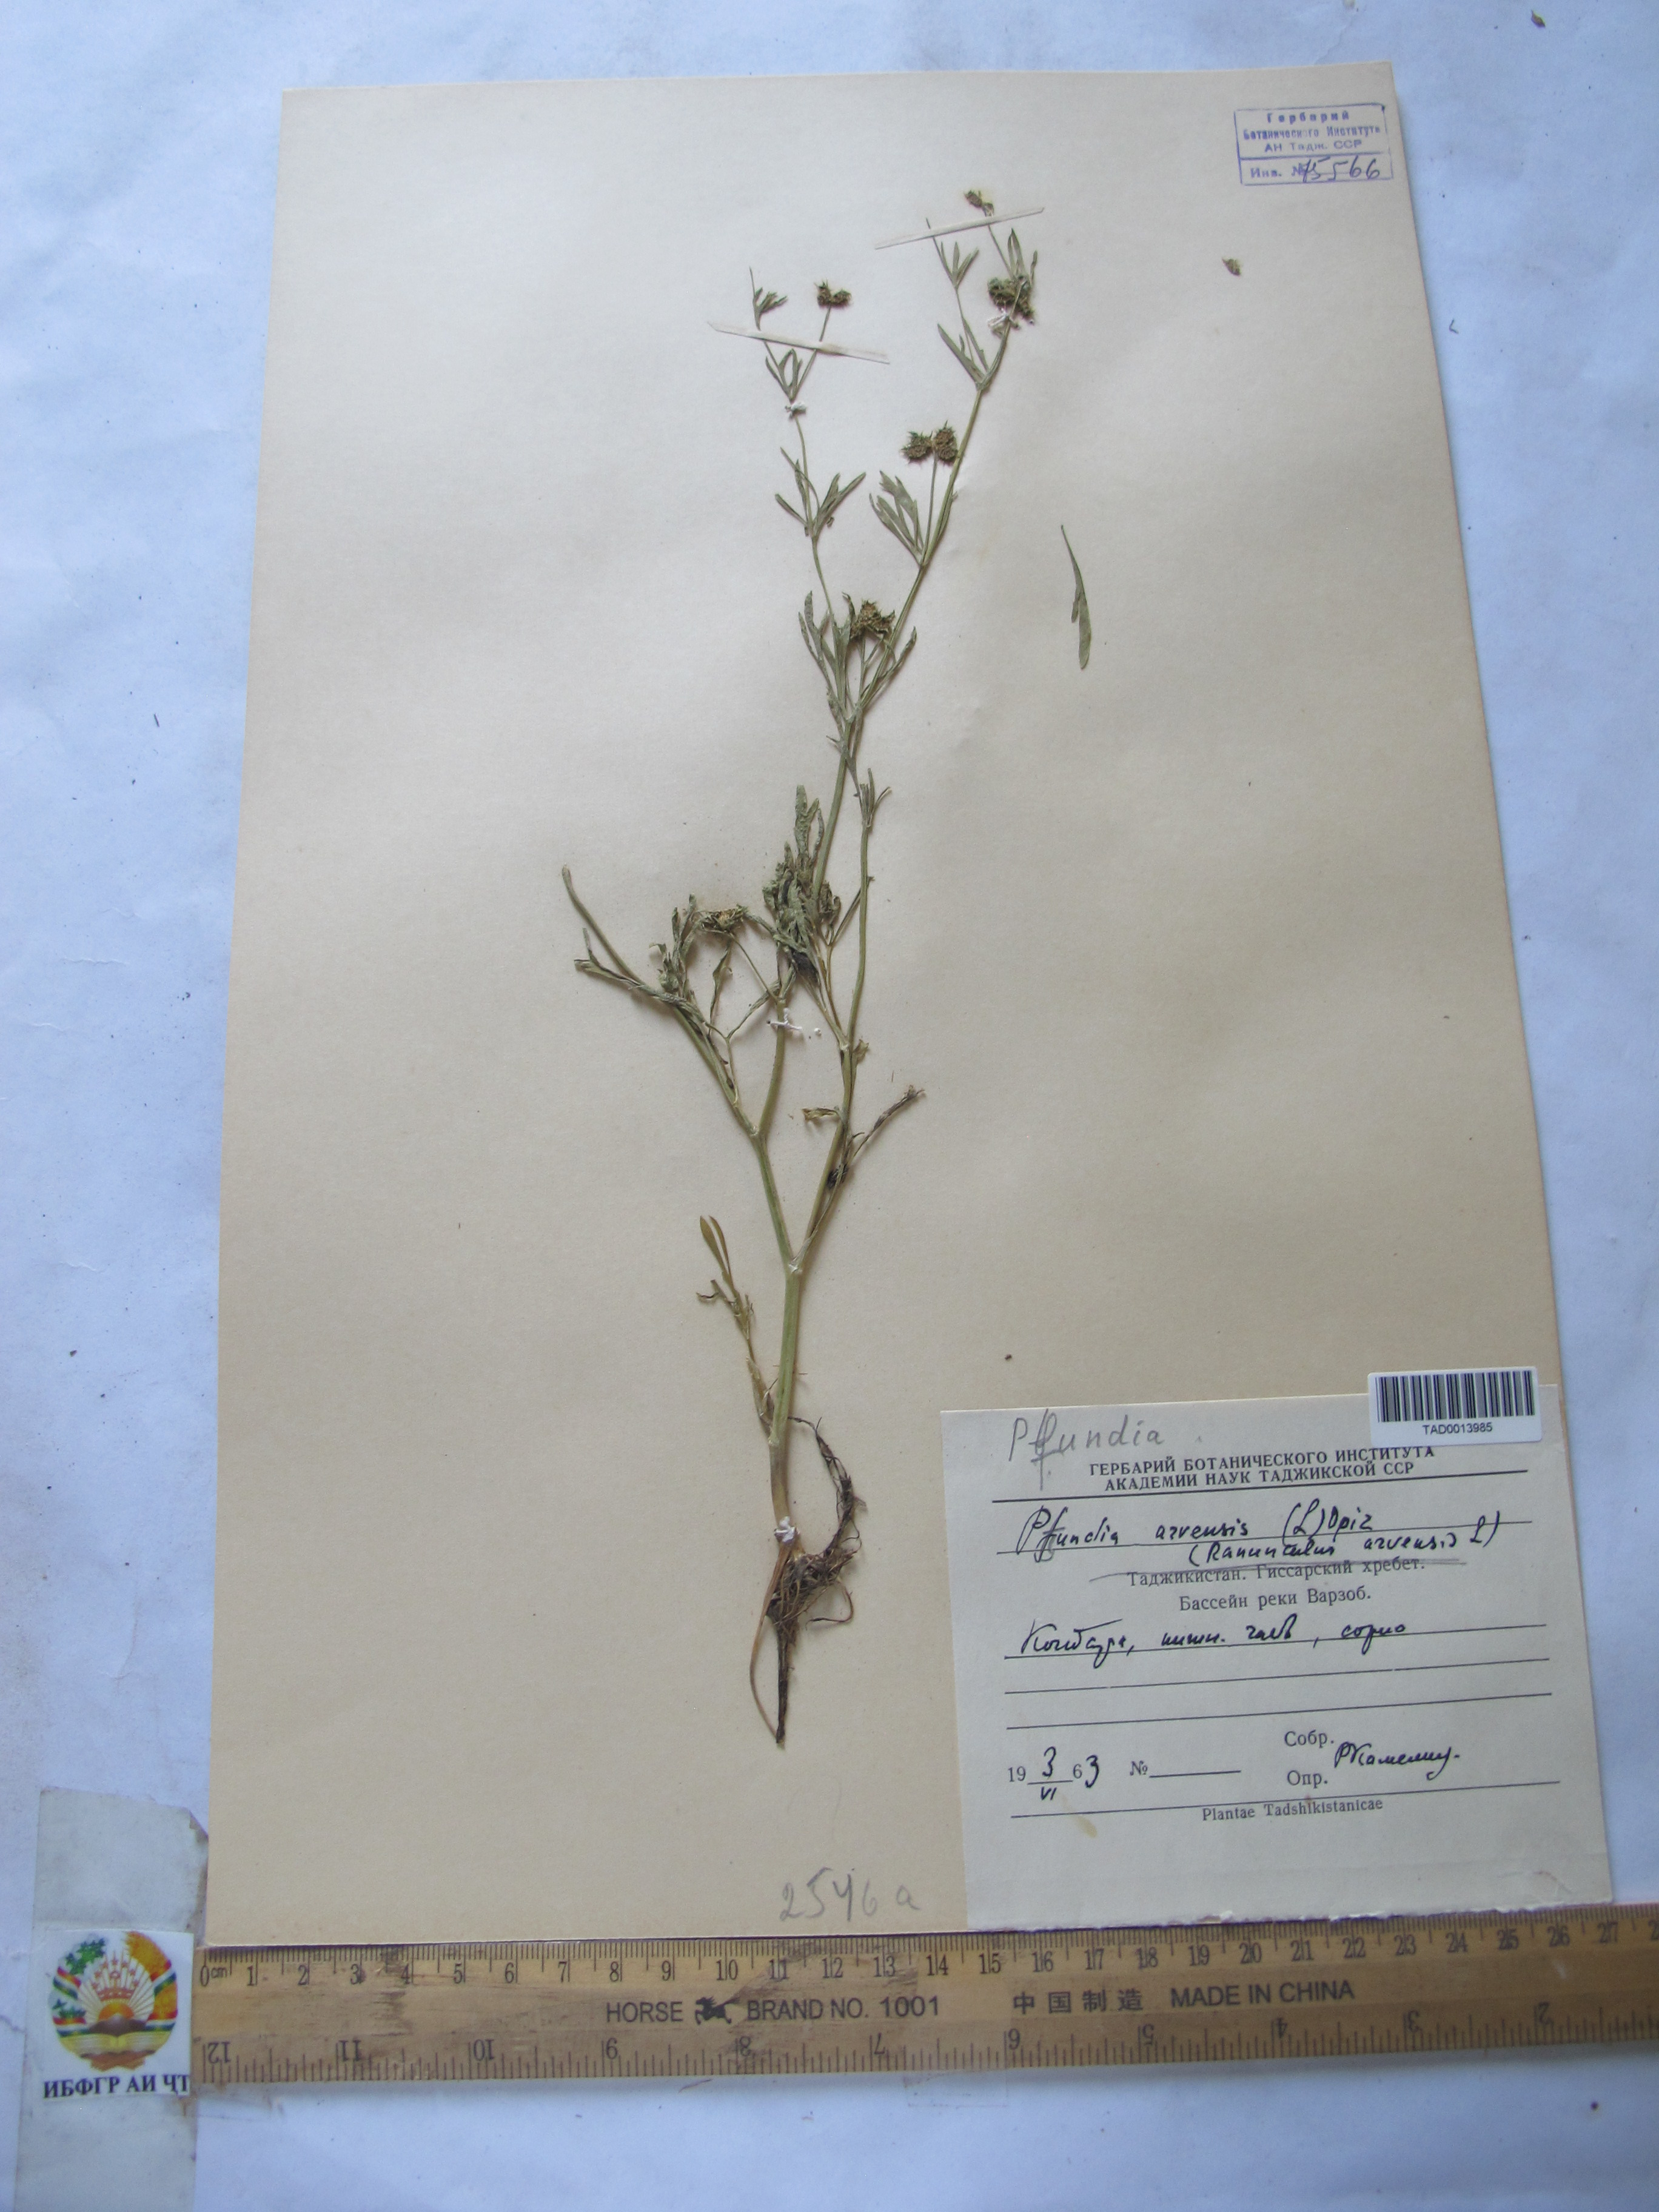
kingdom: Plantae
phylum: Tracheophyta
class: Magnoliopsida
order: Ranunculales
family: Ranunculaceae
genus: Ranunculus
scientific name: Ranunculus arvensis
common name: Corn buttercup
